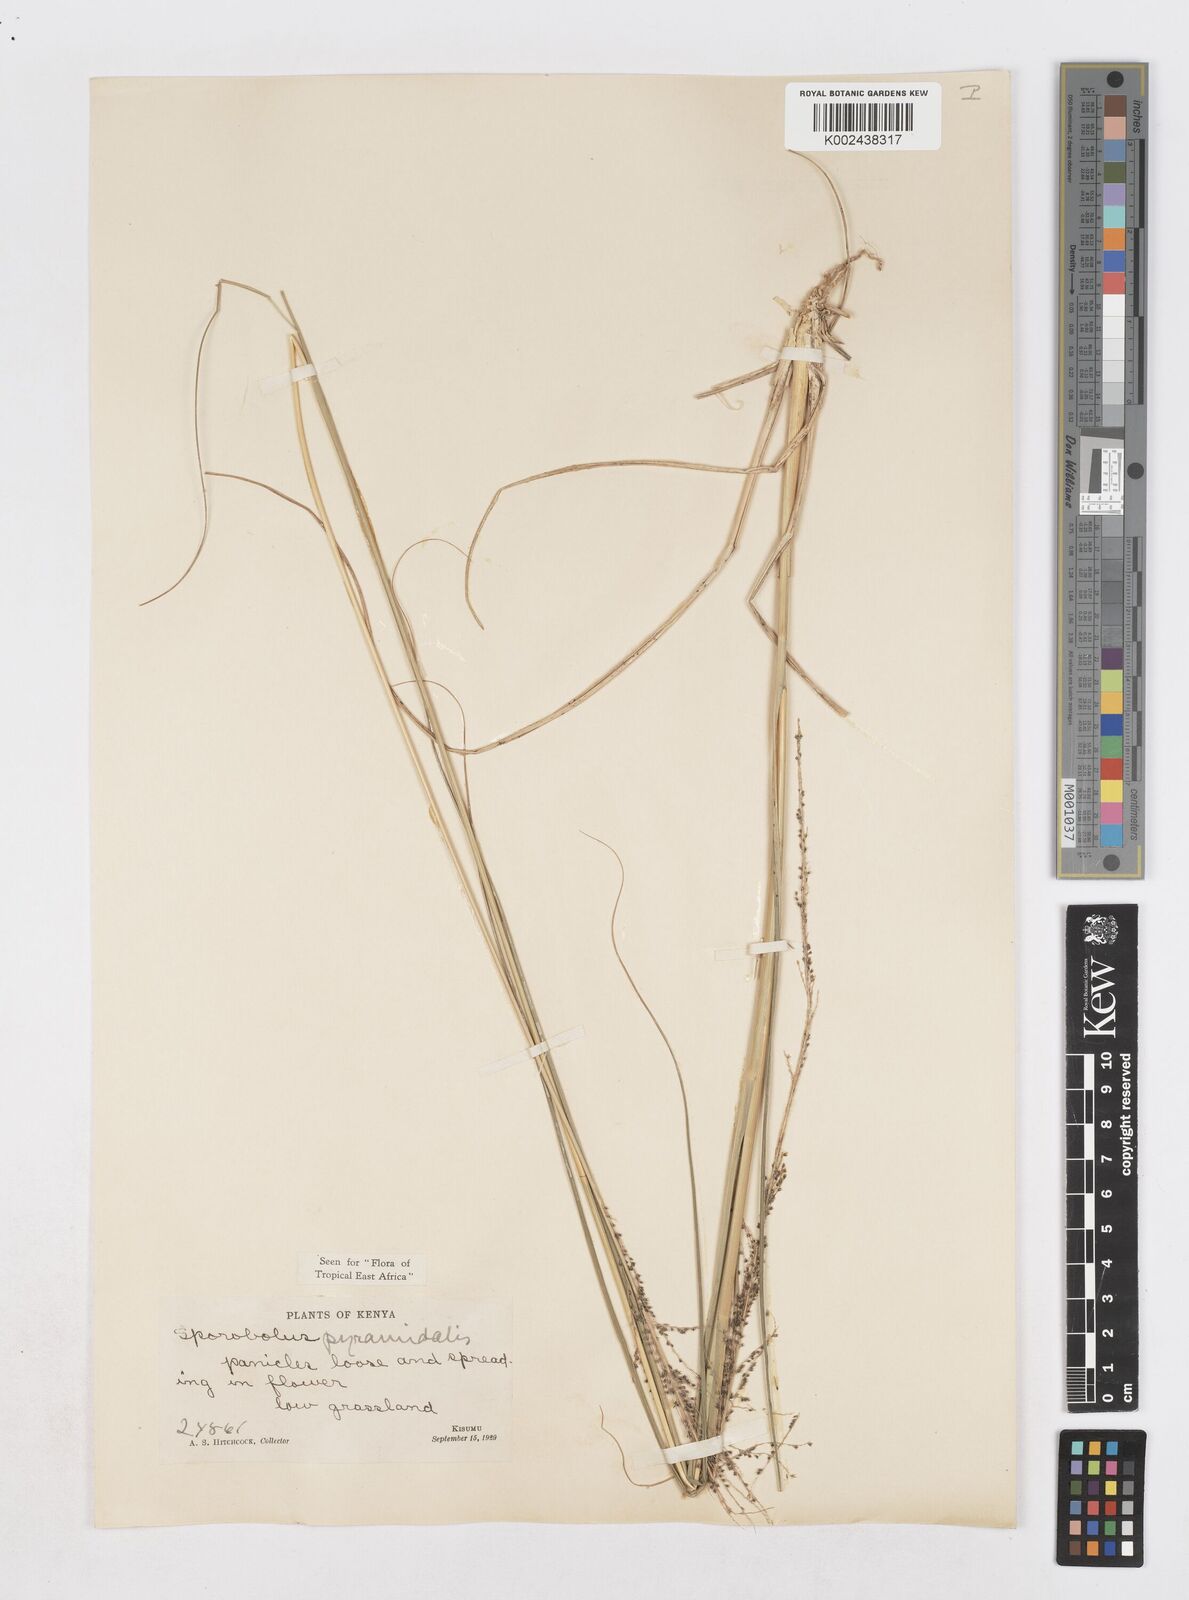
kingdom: Plantae
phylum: Tracheophyta
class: Liliopsida
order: Poales
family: Poaceae
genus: Sporobolus
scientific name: Sporobolus pyramidalis
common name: West indian dropseed
